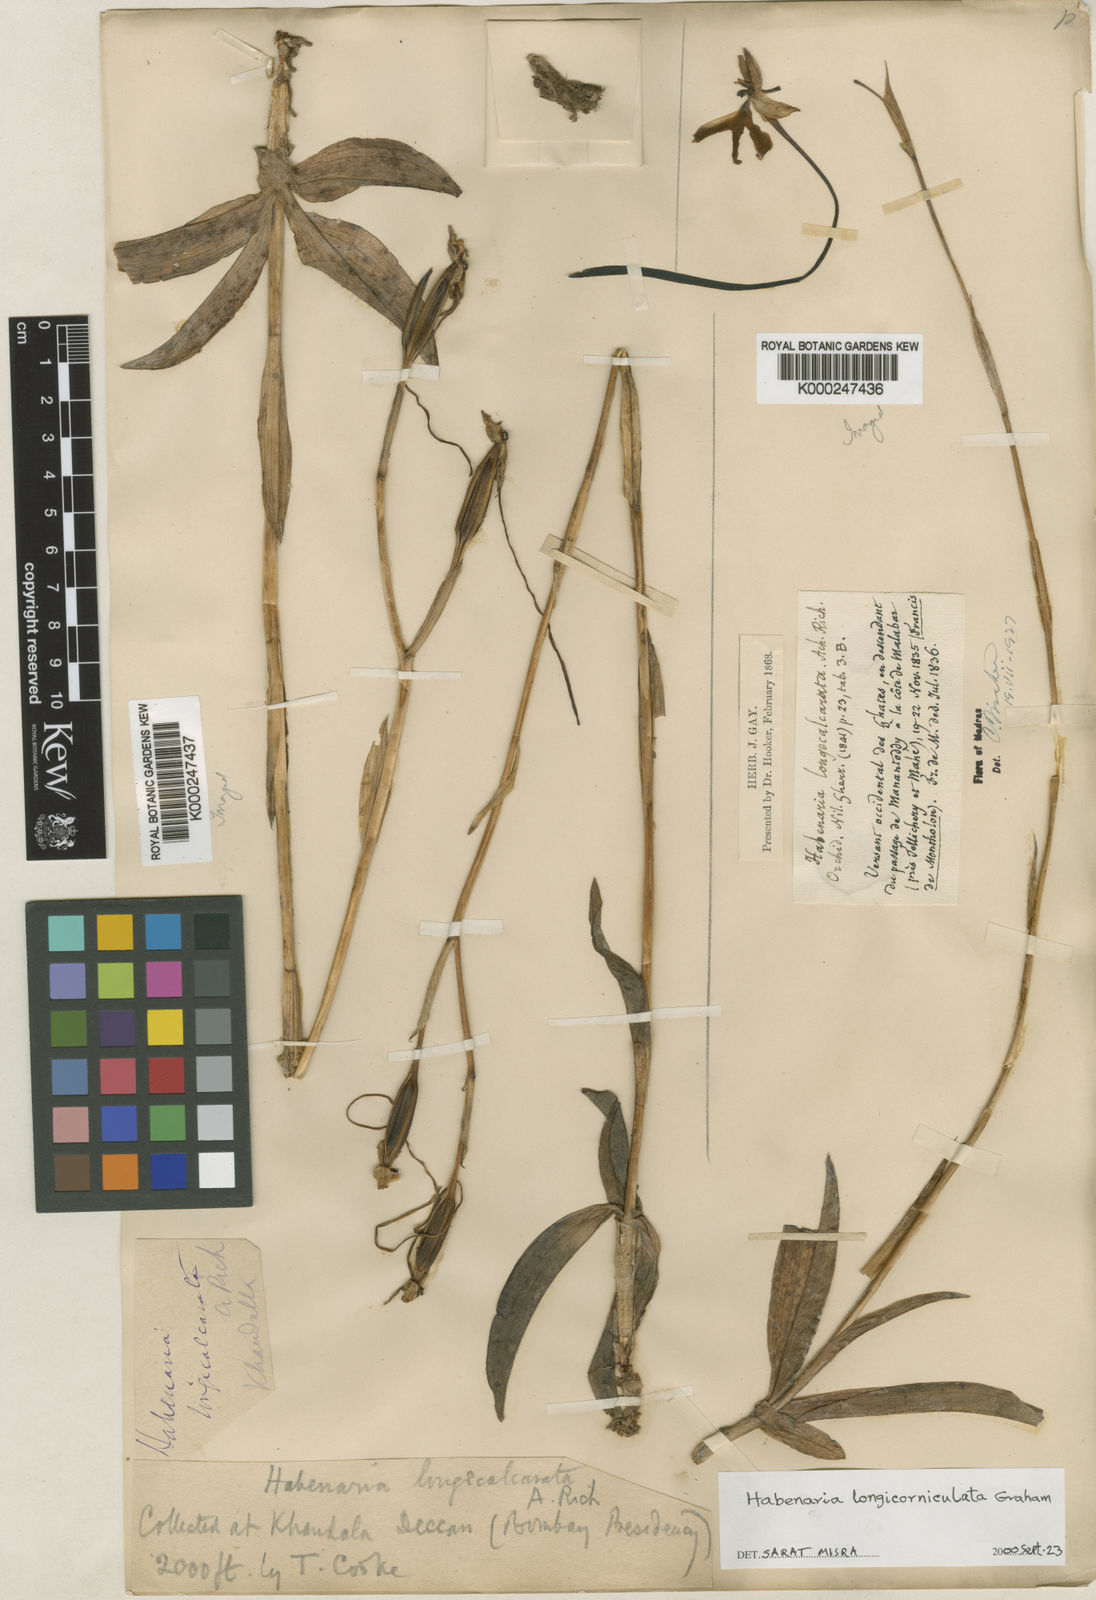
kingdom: Plantae
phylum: Tracheophyta
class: Liliopsida
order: Asparagales
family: Orchidaceae
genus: Habenaria
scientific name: Habenaria longicorniculata
